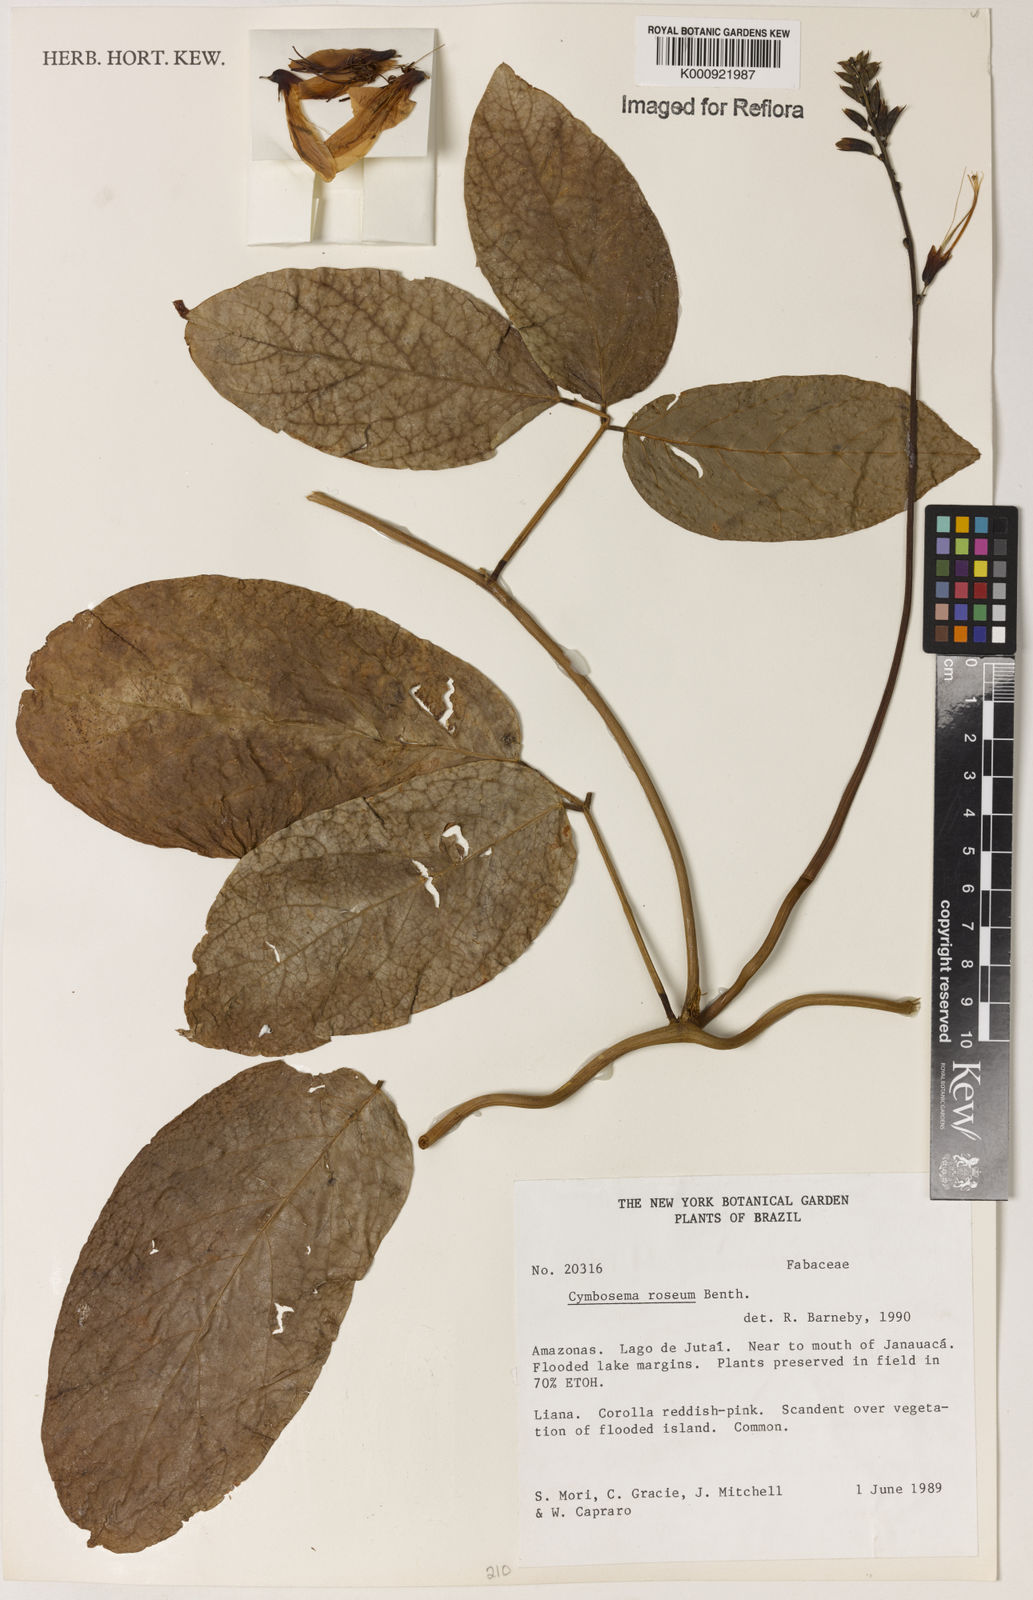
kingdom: Plantae
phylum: Tracheophyta
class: Magnoliopsida
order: Fabales
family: Fabaceae
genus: Cymbosema
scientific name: Cymbosema roseum
